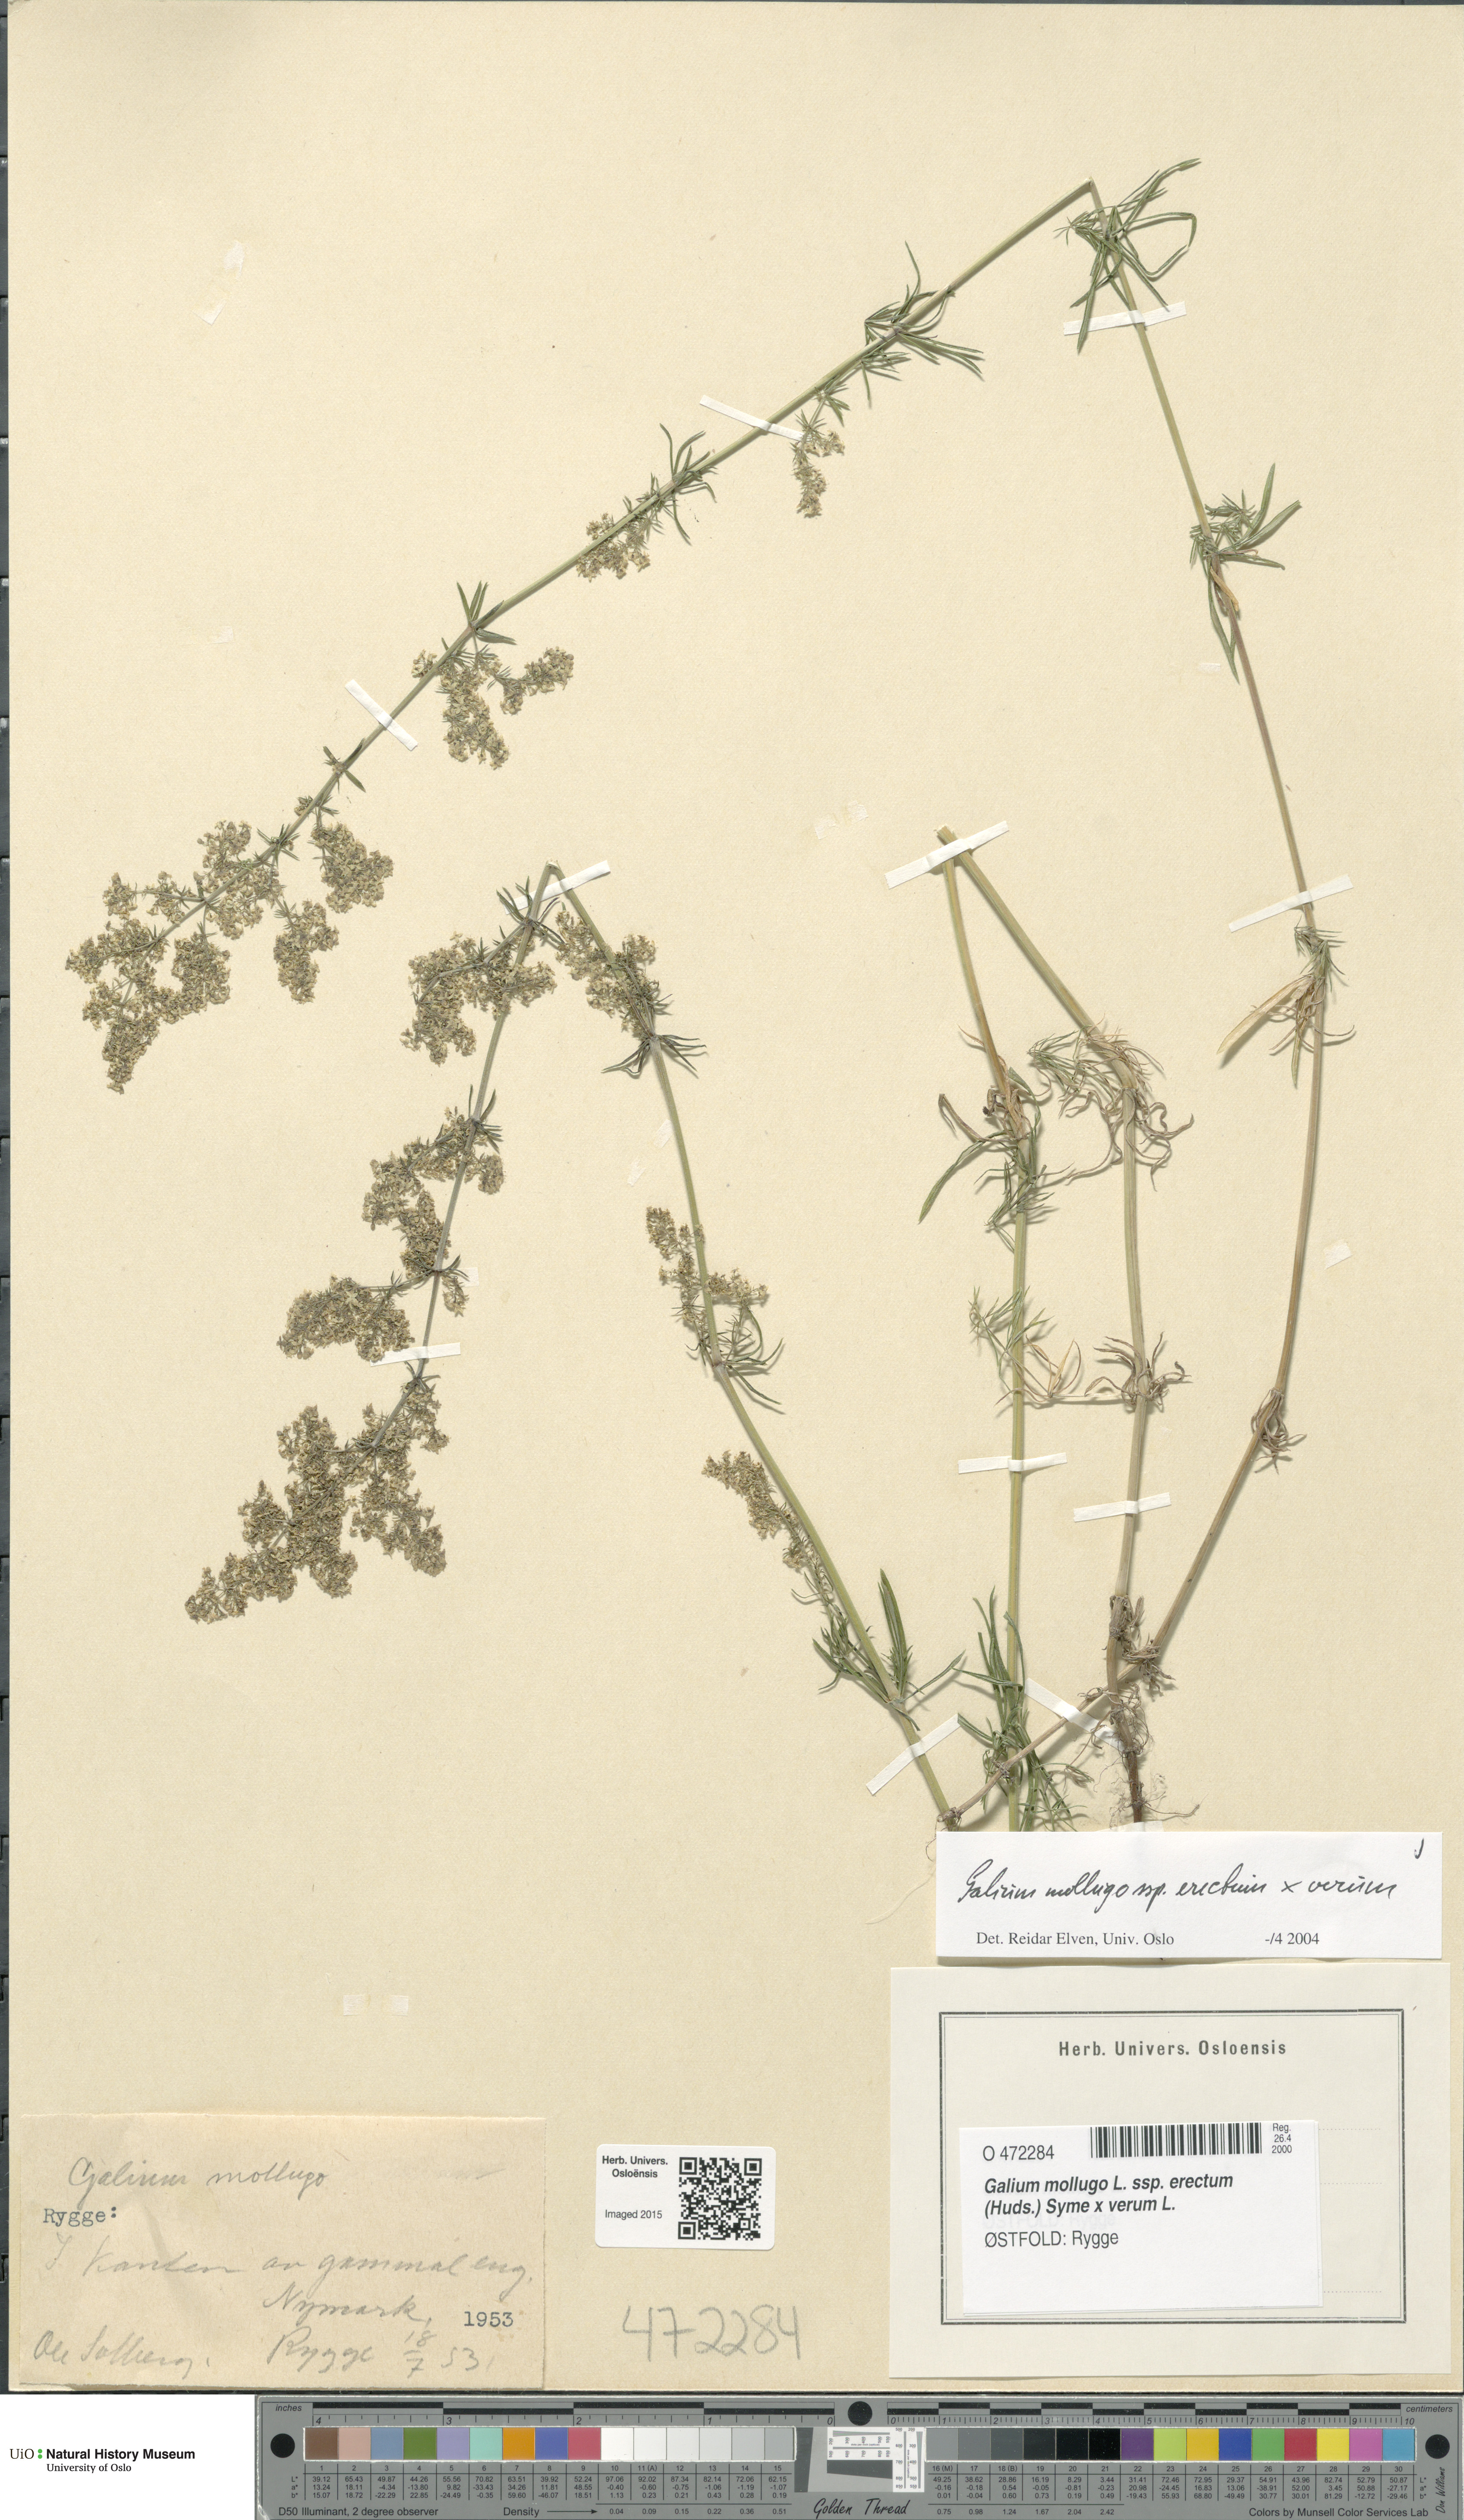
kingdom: Plantae
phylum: Tracheophyta
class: Magnoliopsida
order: Gentianales
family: Rubiaceae
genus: Galium
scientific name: Galium
